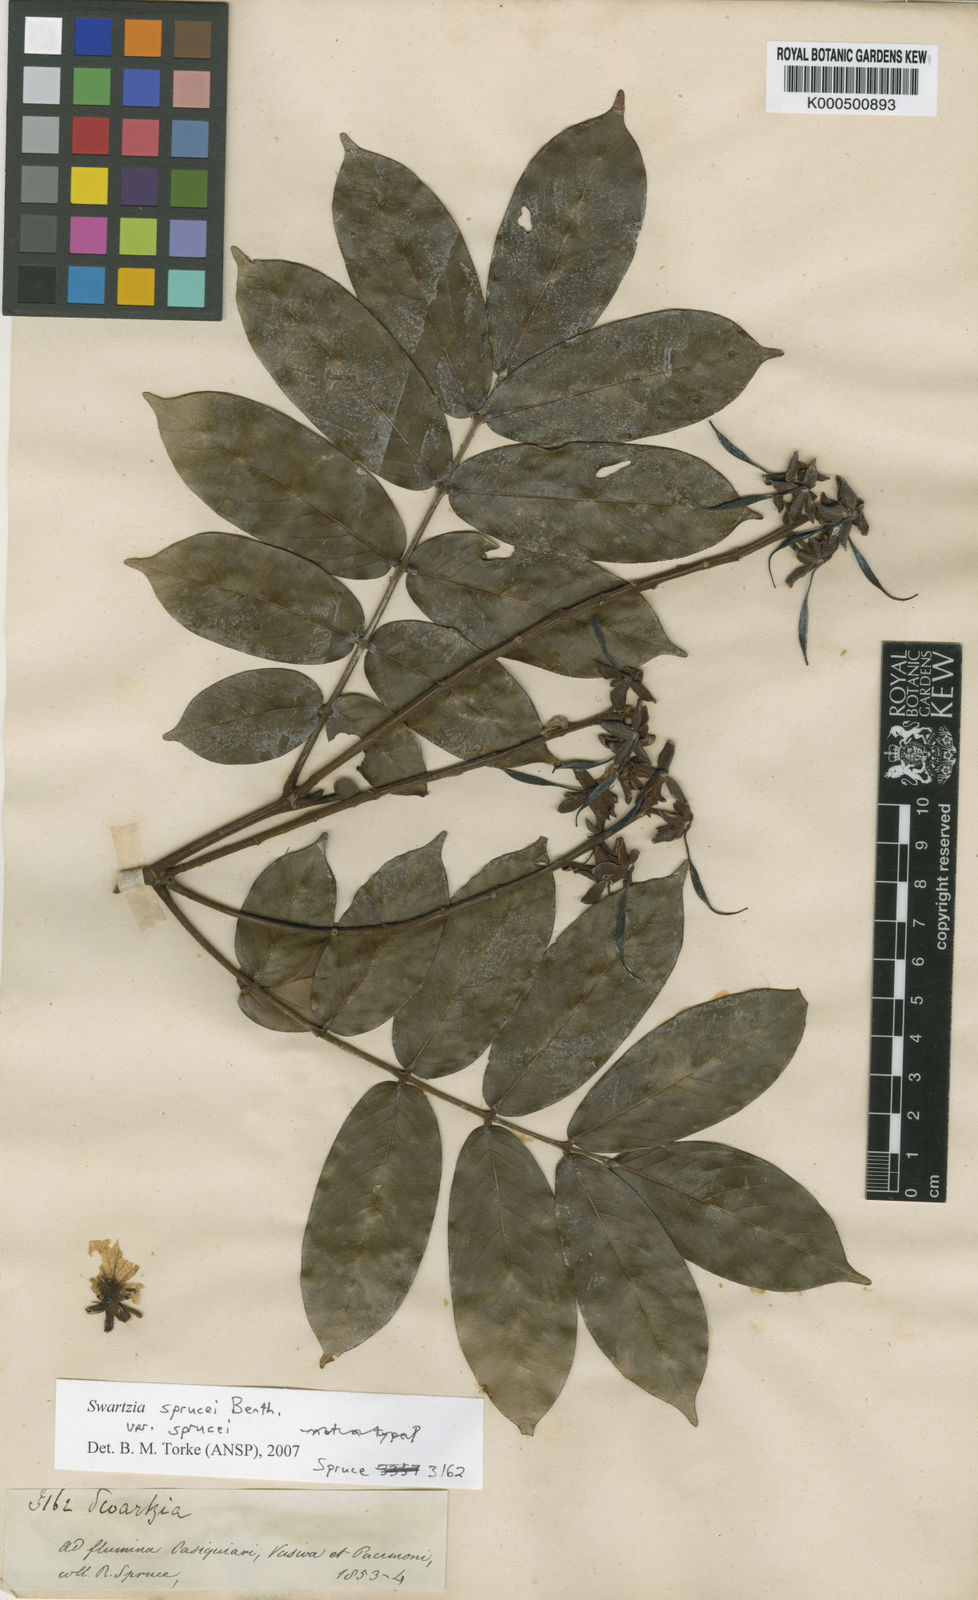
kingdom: Plantae
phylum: Tracheophyta
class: Magnoliopsida
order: Fabales
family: Fabaceae
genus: Swartzia
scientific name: Swartzia sprucei
